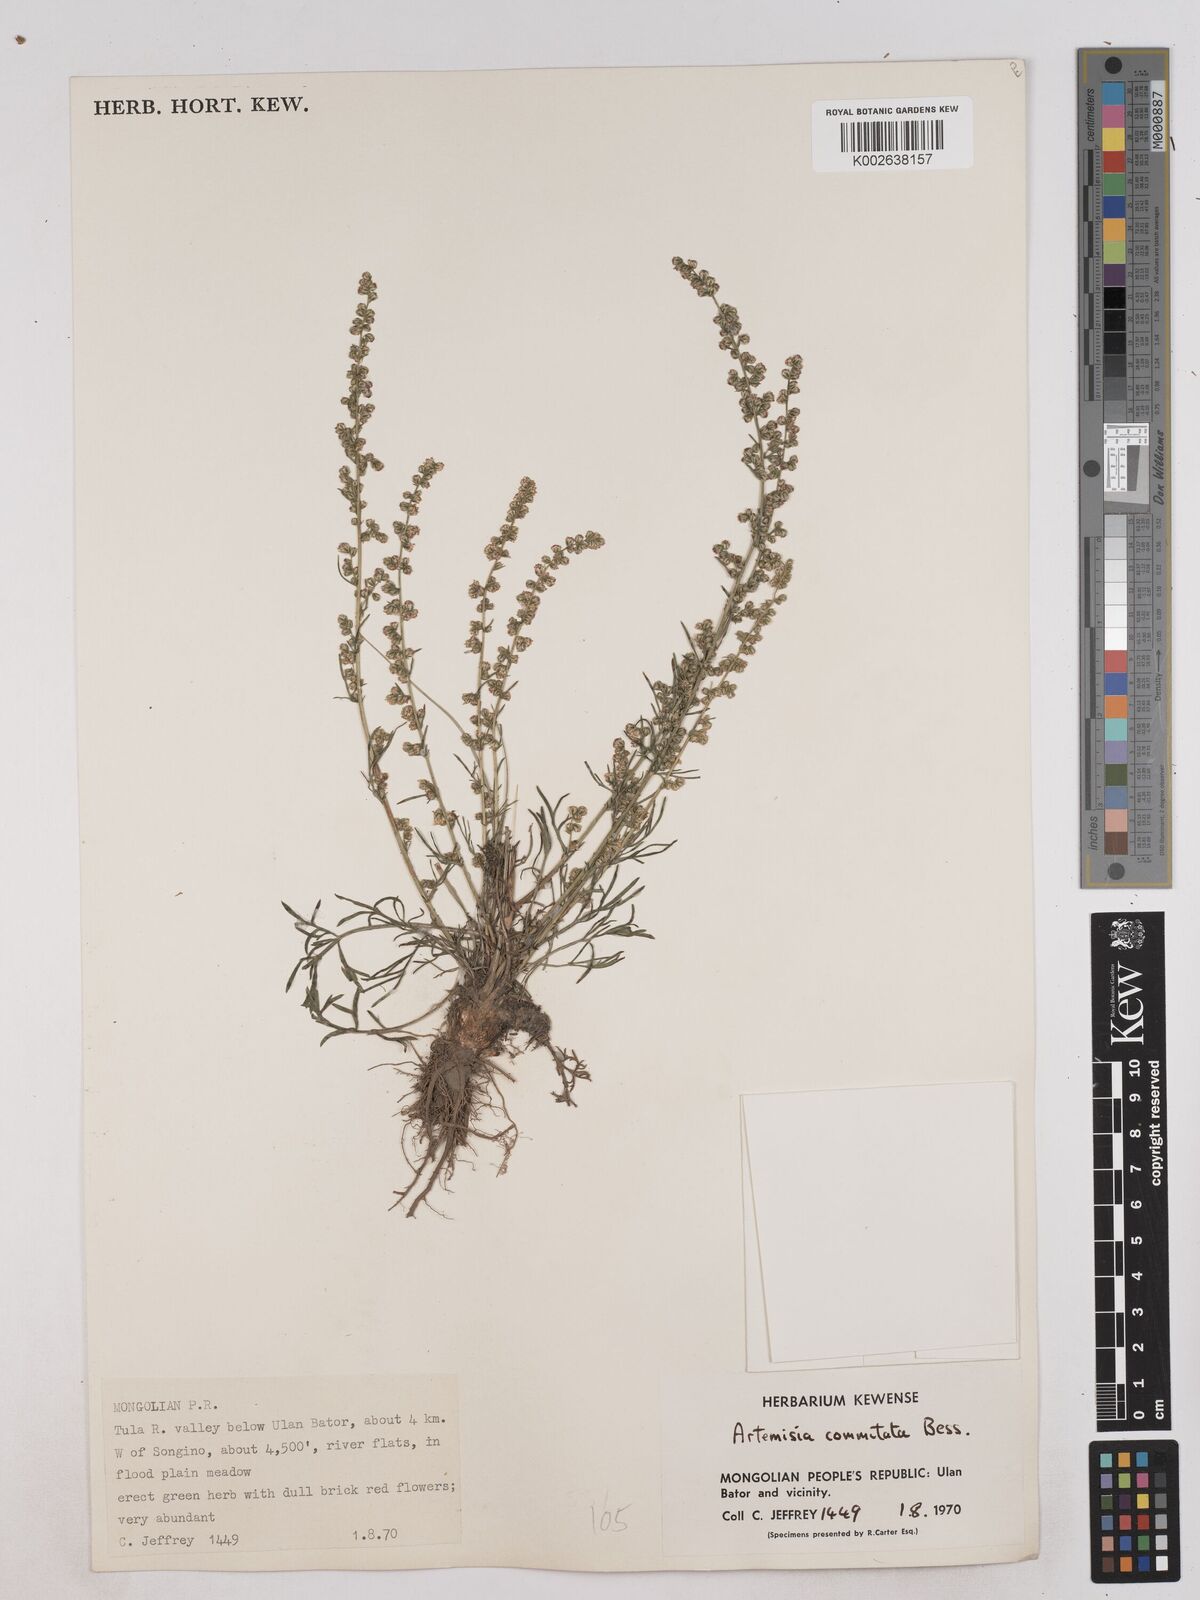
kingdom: Plantae
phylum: Tracheophyta
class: Magnoliopsida
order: Asterales
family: Asteraceae
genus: Artemisia
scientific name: Artemisia pubescens
